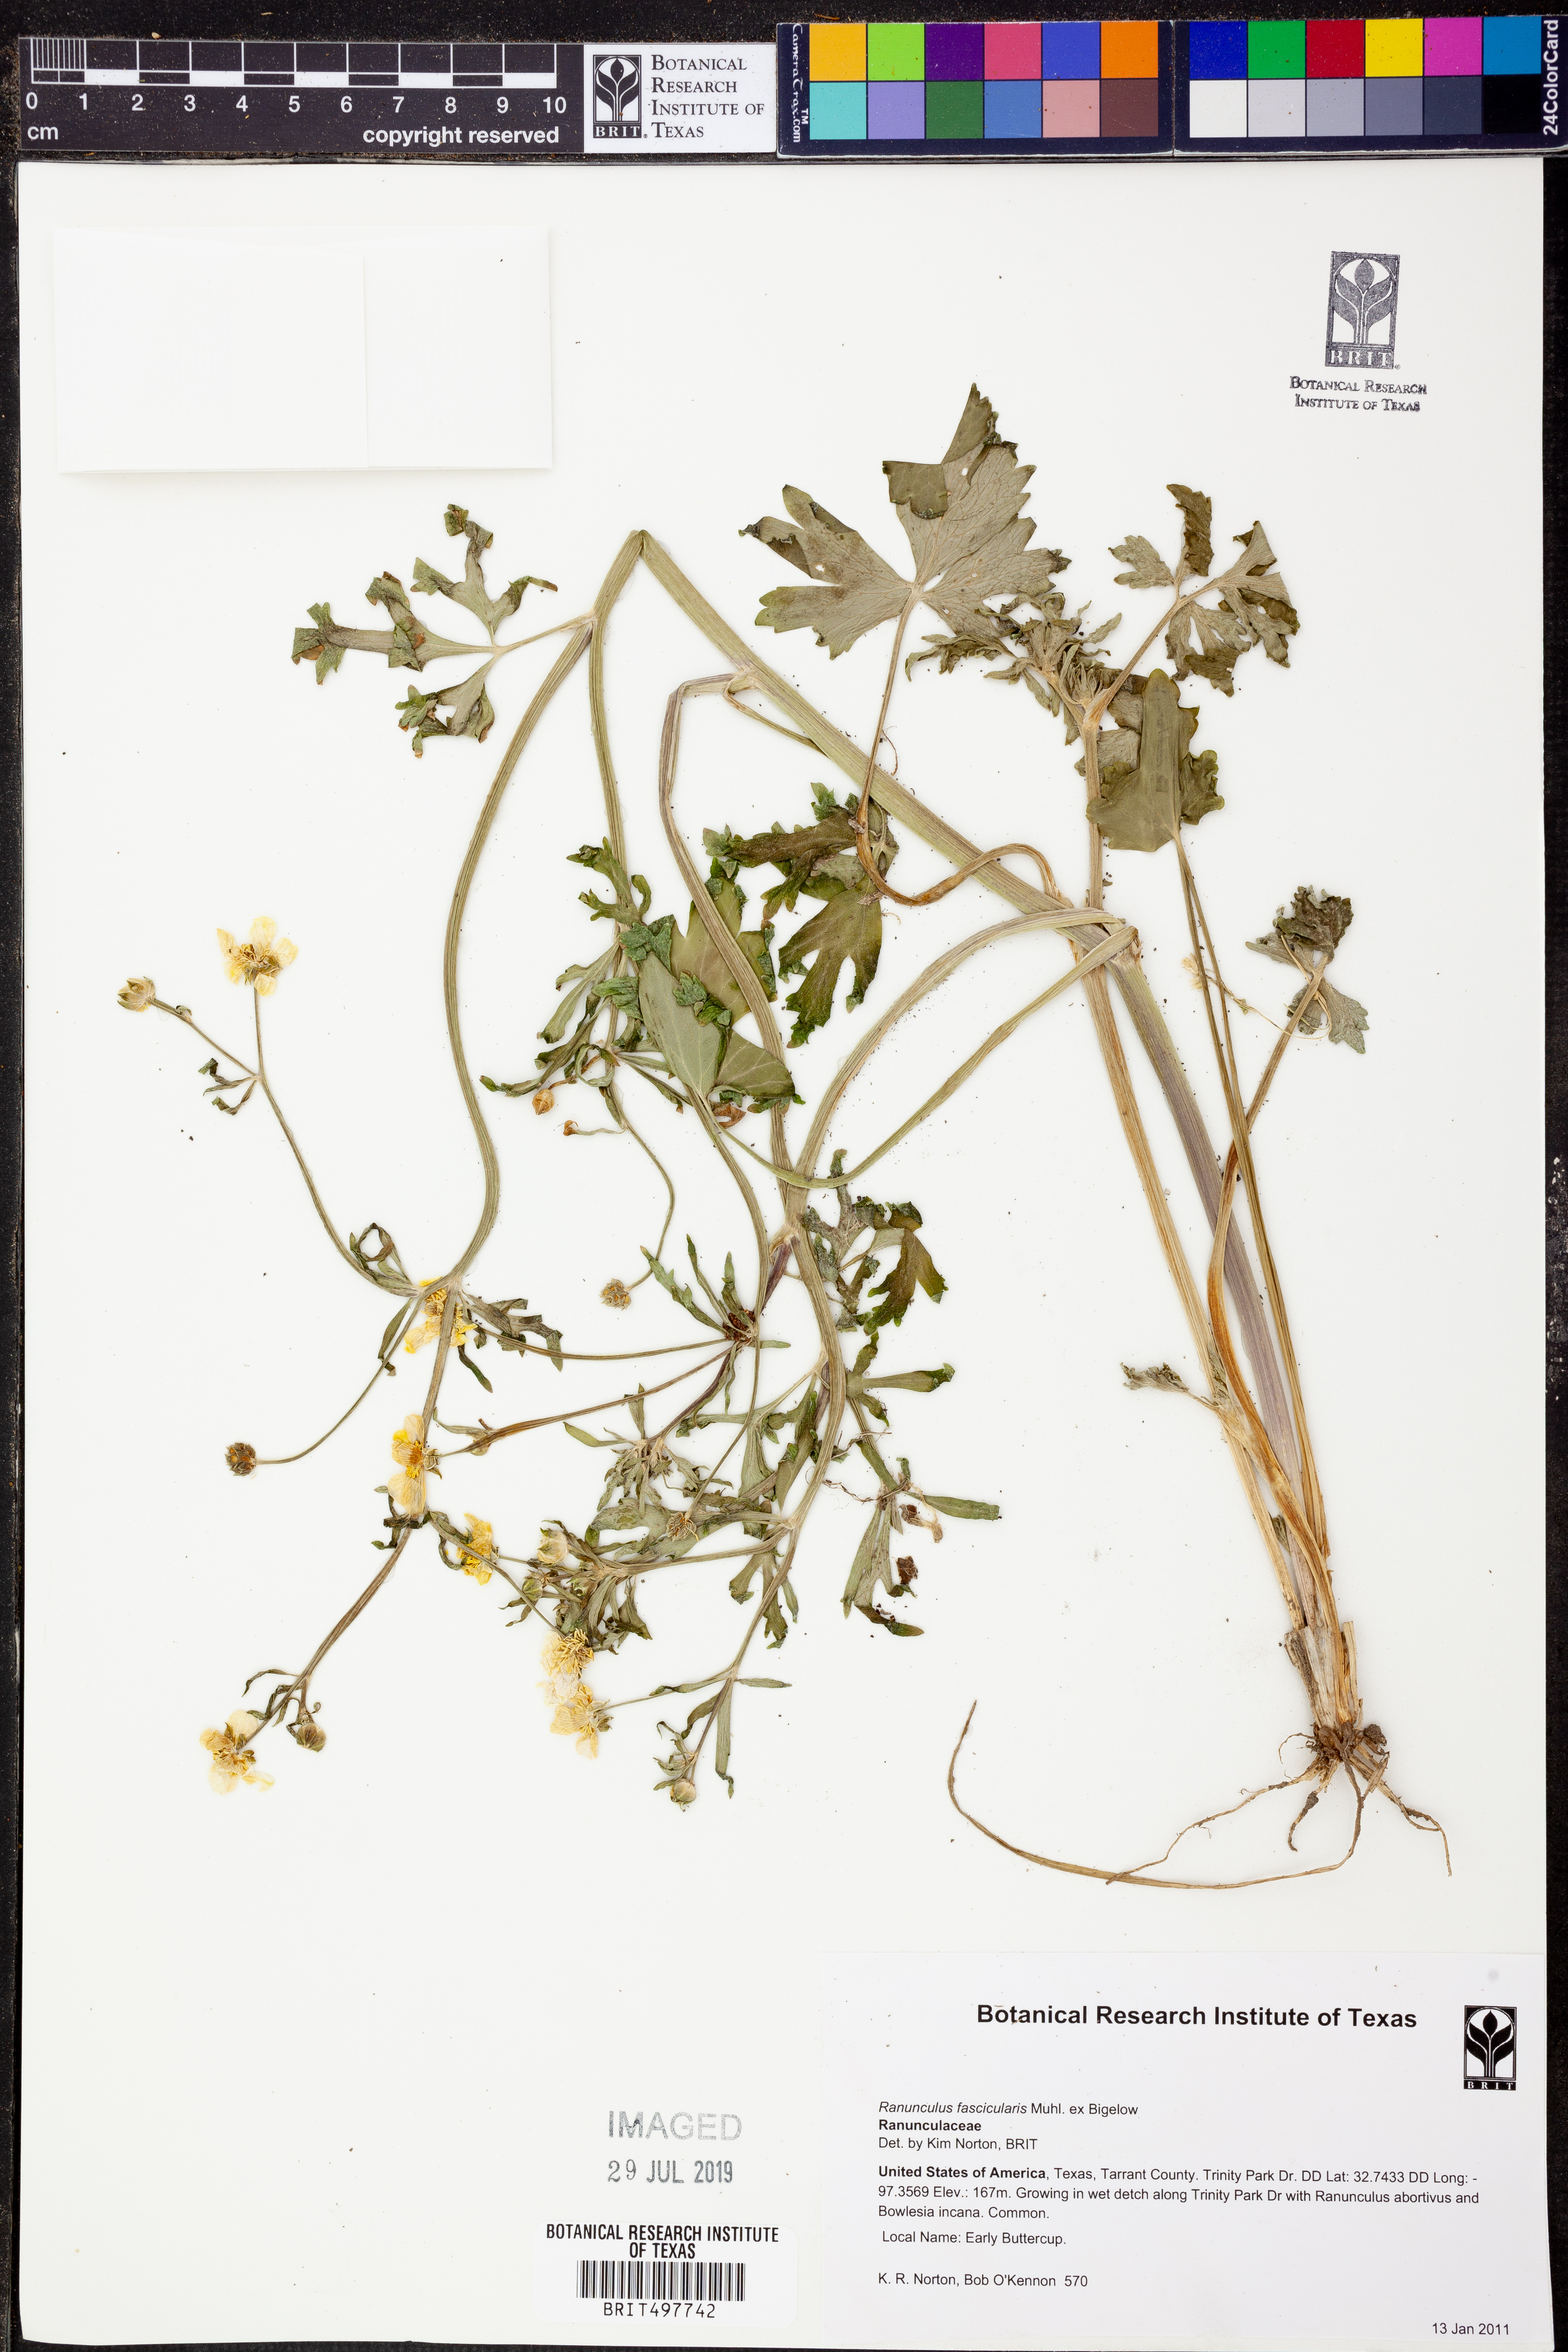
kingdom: Plantae
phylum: Tracheophyta
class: Magnoliopsida
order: Ranunculales
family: Ranunculaceae
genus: Ranunculus
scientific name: Ranunculus fascicularis
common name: Early buttercup
